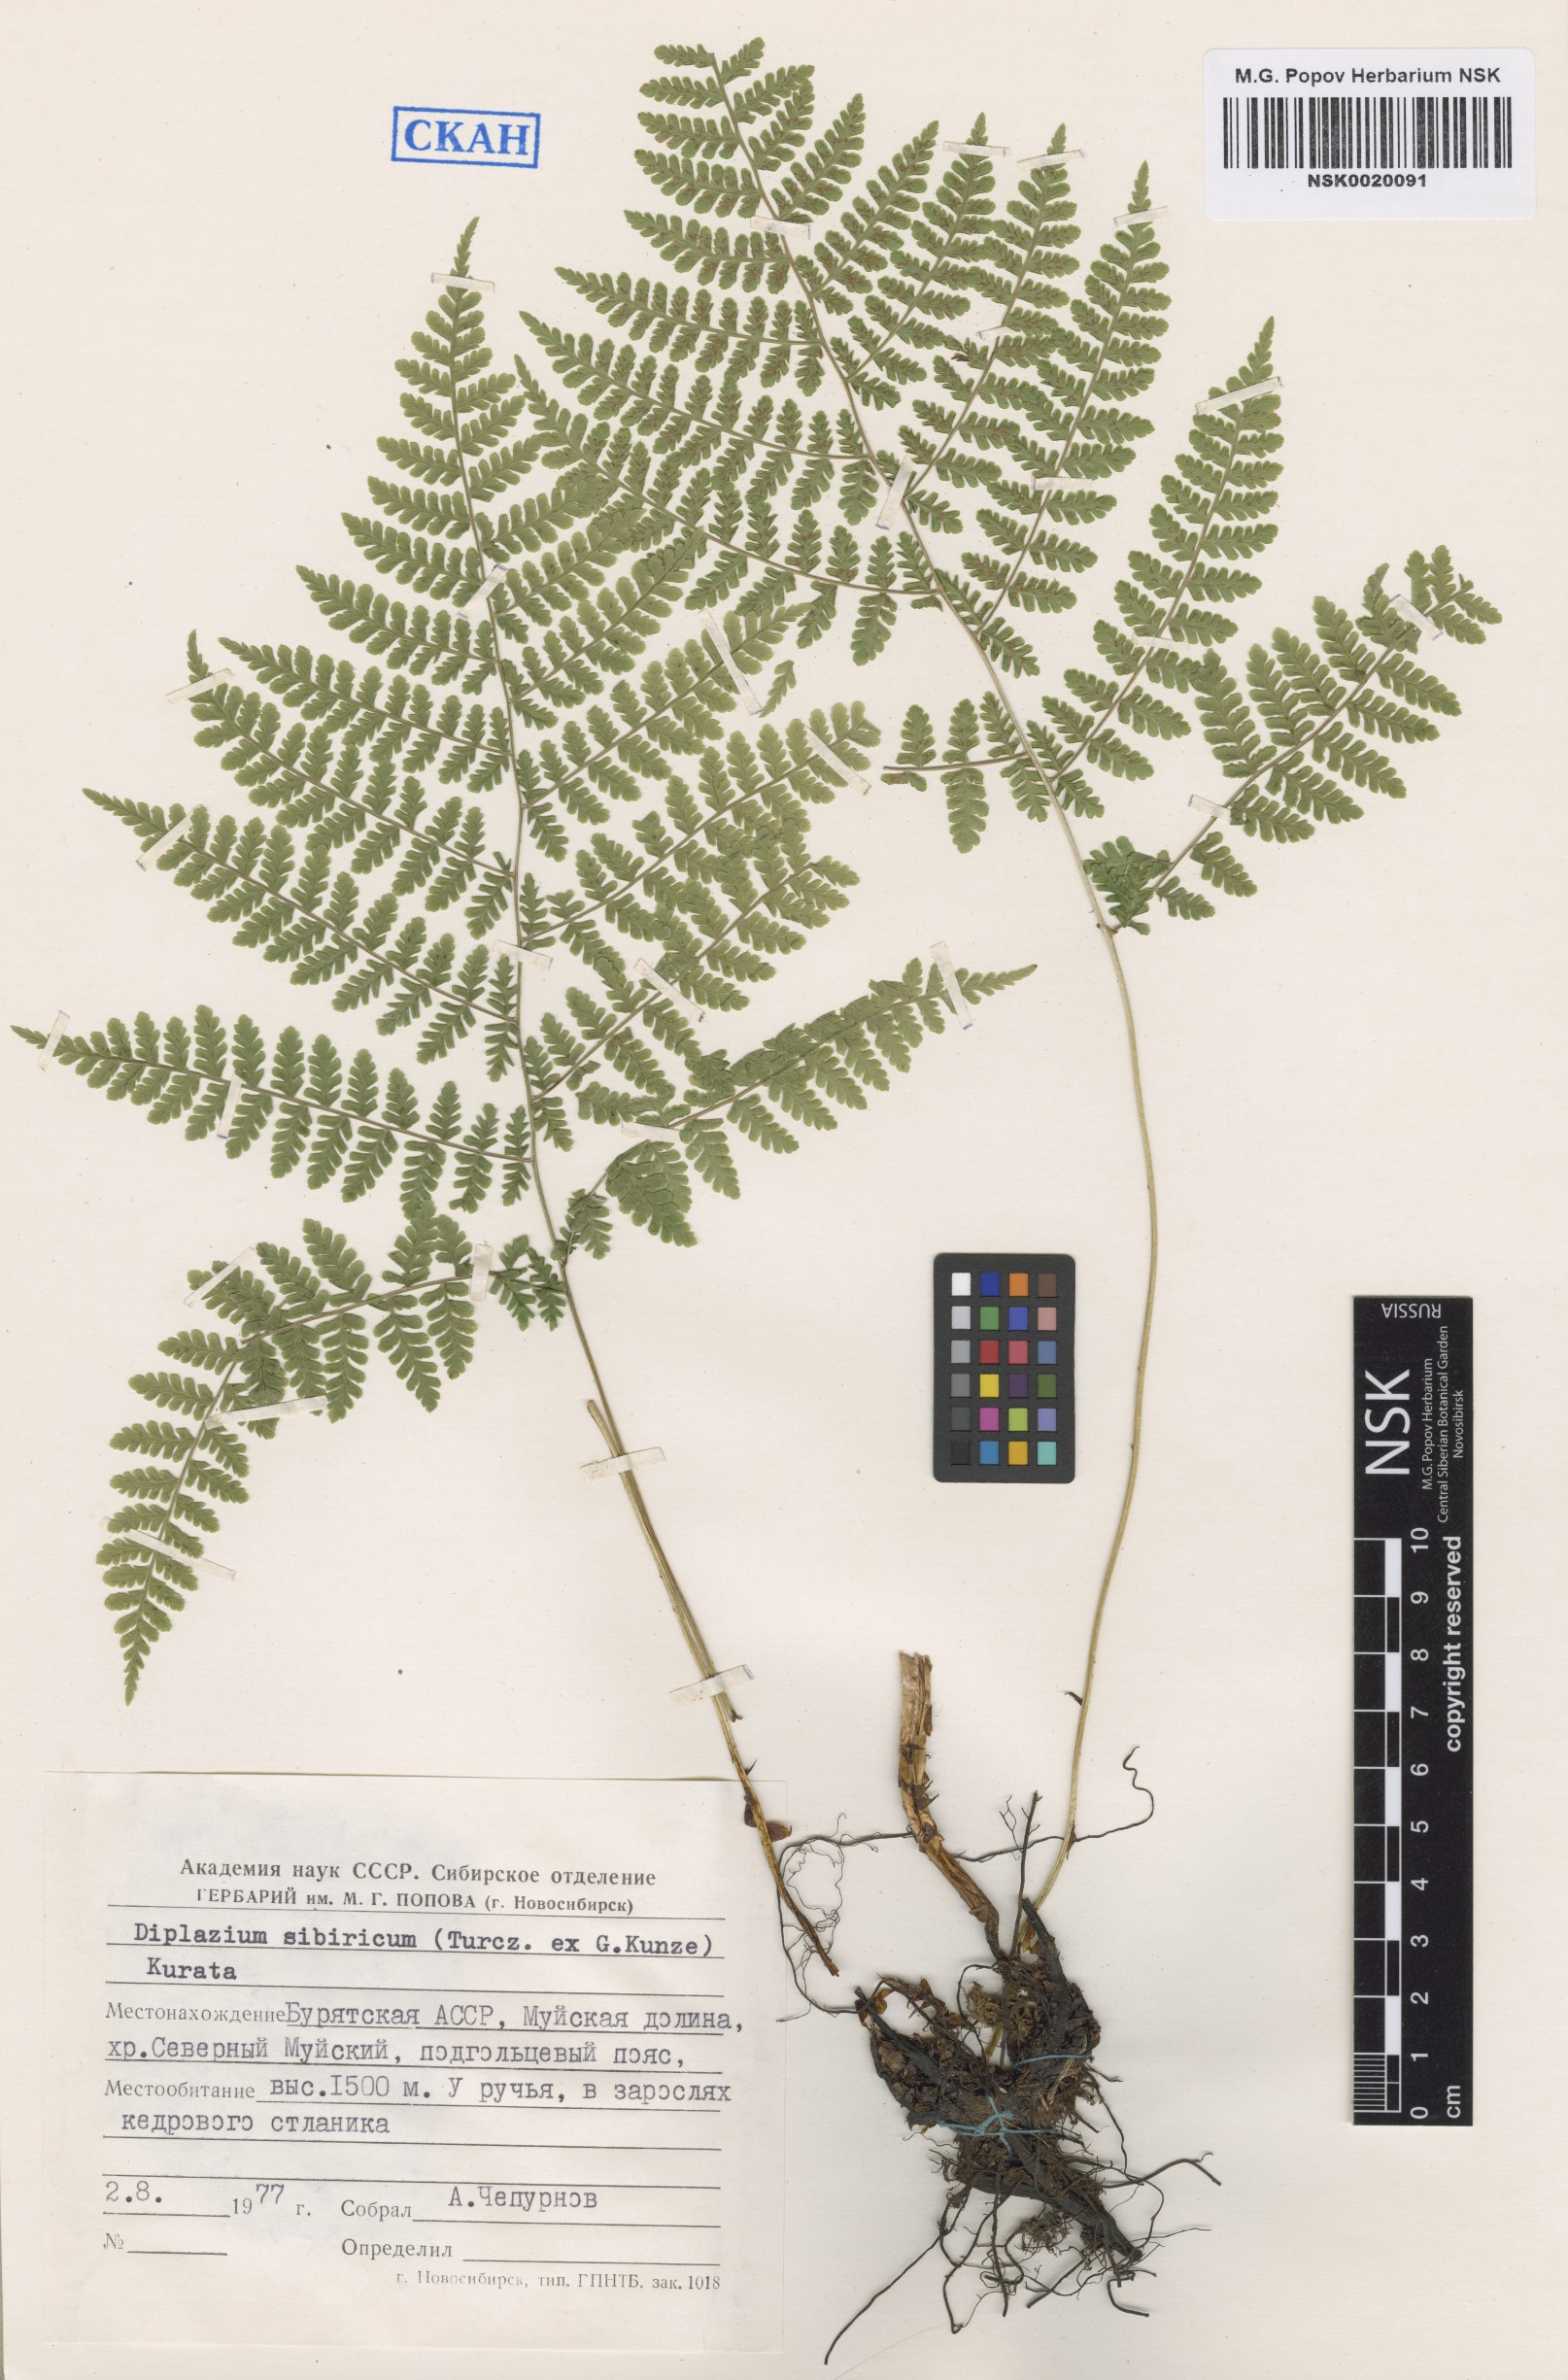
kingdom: Plantae
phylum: Tracheophyta
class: Polypodiopsida
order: Polypodiales
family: Athyriaceae
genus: Diplazium
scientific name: Diplazium sibiricum
